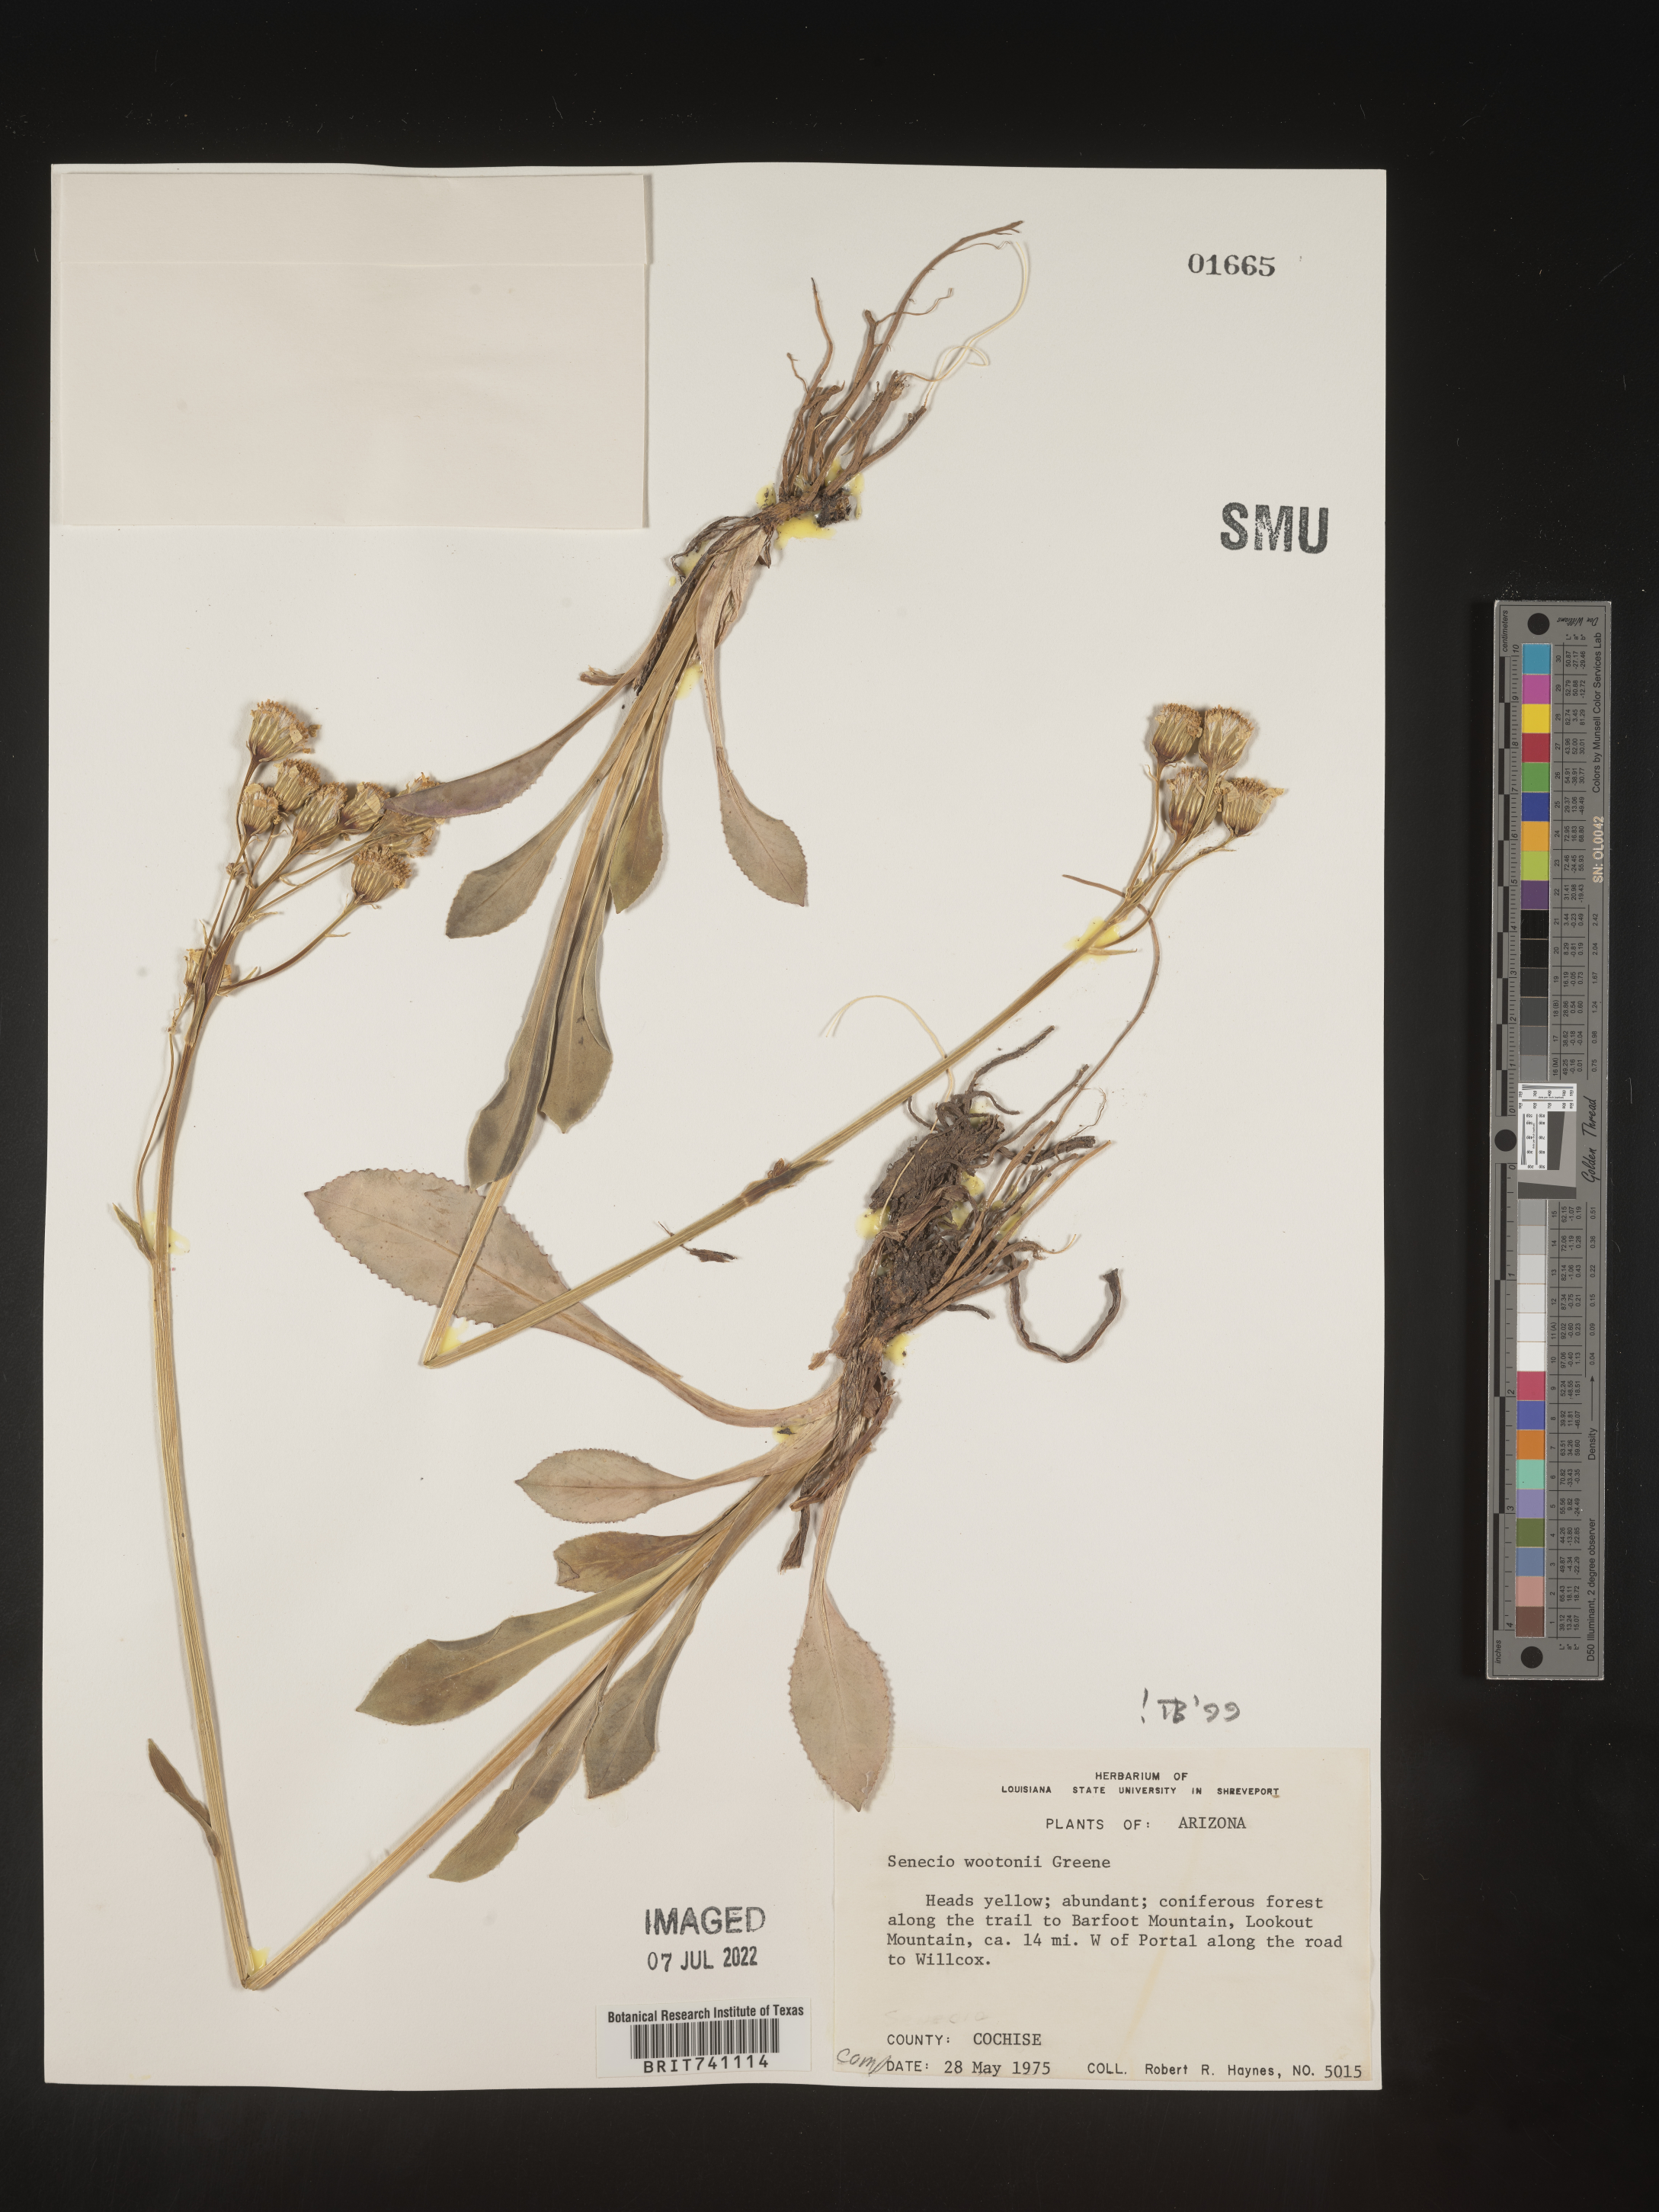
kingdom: Plantae
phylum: Tracheophyta
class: Magnoliopsida
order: Asterales
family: Asteraceae
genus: Senecio
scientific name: Senecio wootonii
